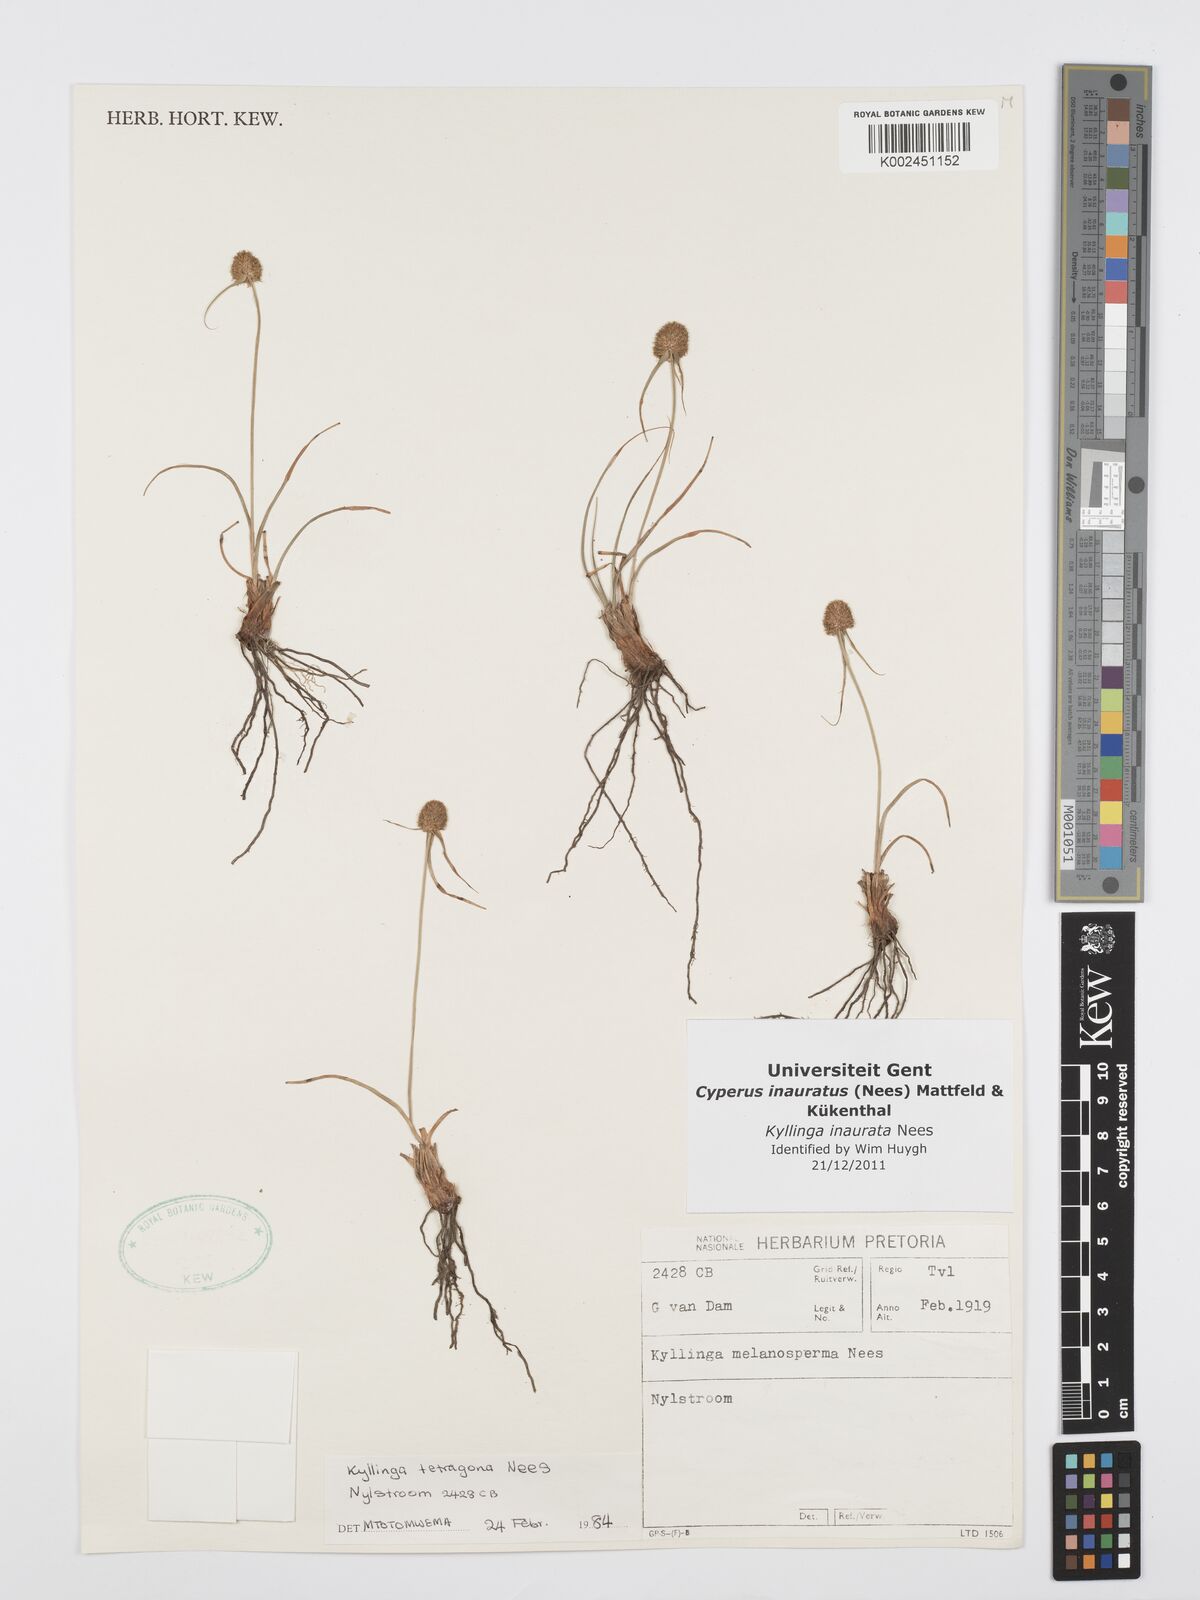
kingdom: Plantae
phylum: Tracheophyta
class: Liliopsida
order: Poales
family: Cyperaceae
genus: Cyperus
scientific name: Cyperus inauratus
